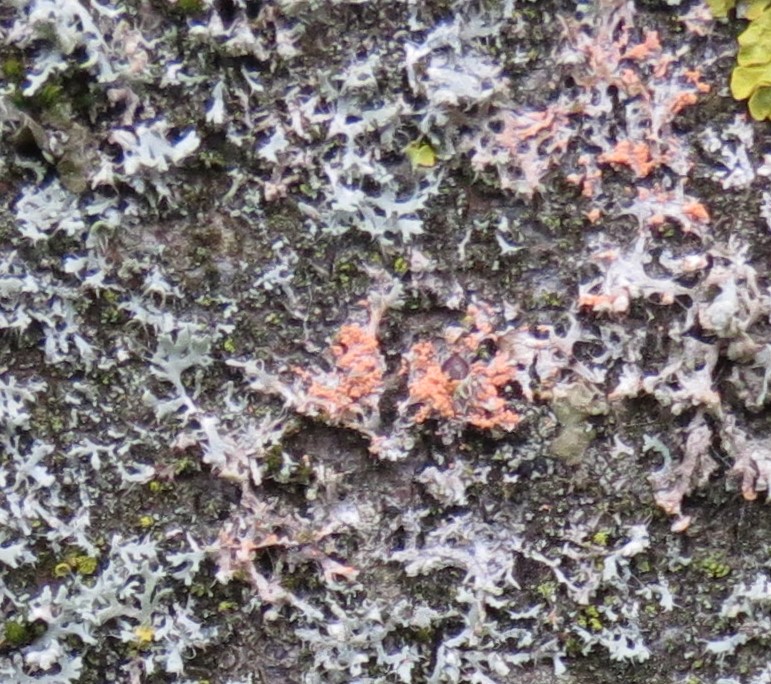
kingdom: Fungi
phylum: Basidiomycota
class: Agaricomycetes
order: Corticiales
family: Corticiaceae
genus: Erythricium
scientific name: Erythricium aurantiacum
